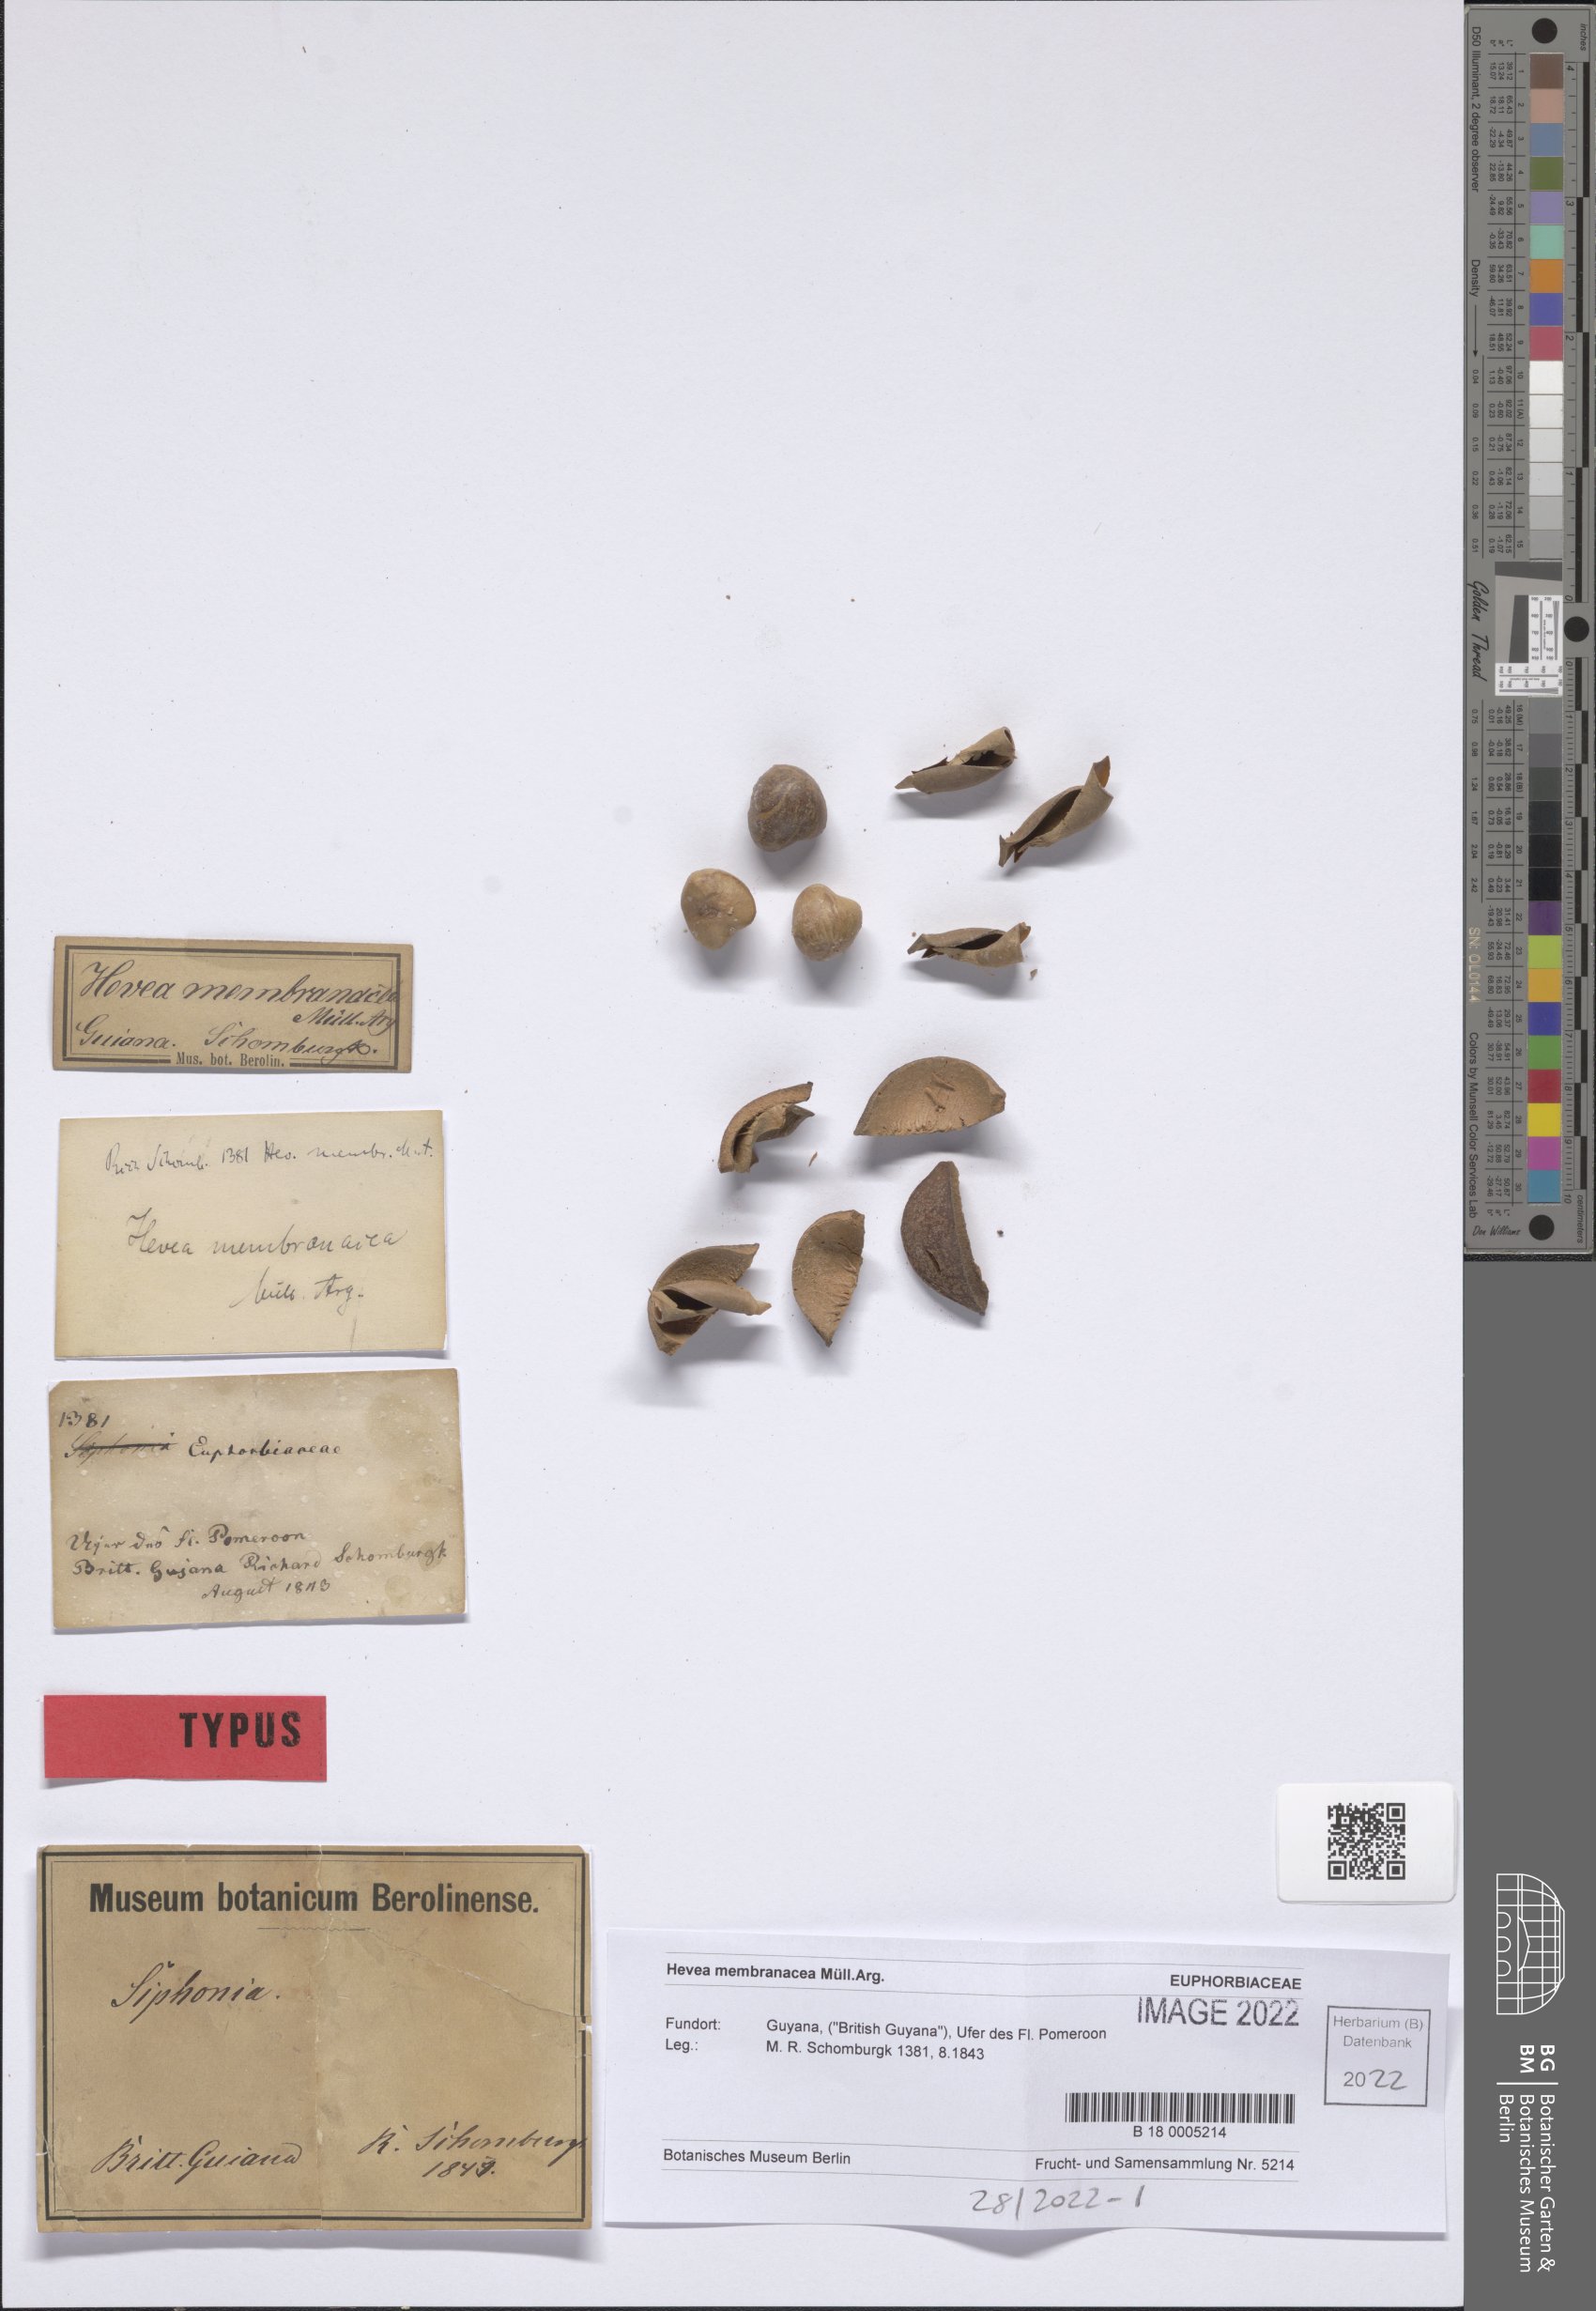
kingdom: Plantae
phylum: Tracheophyta
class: Magnoliopsida
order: Malpighiales
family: Euphorbiaceae
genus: Hevea
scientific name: Hevea pauciflora
